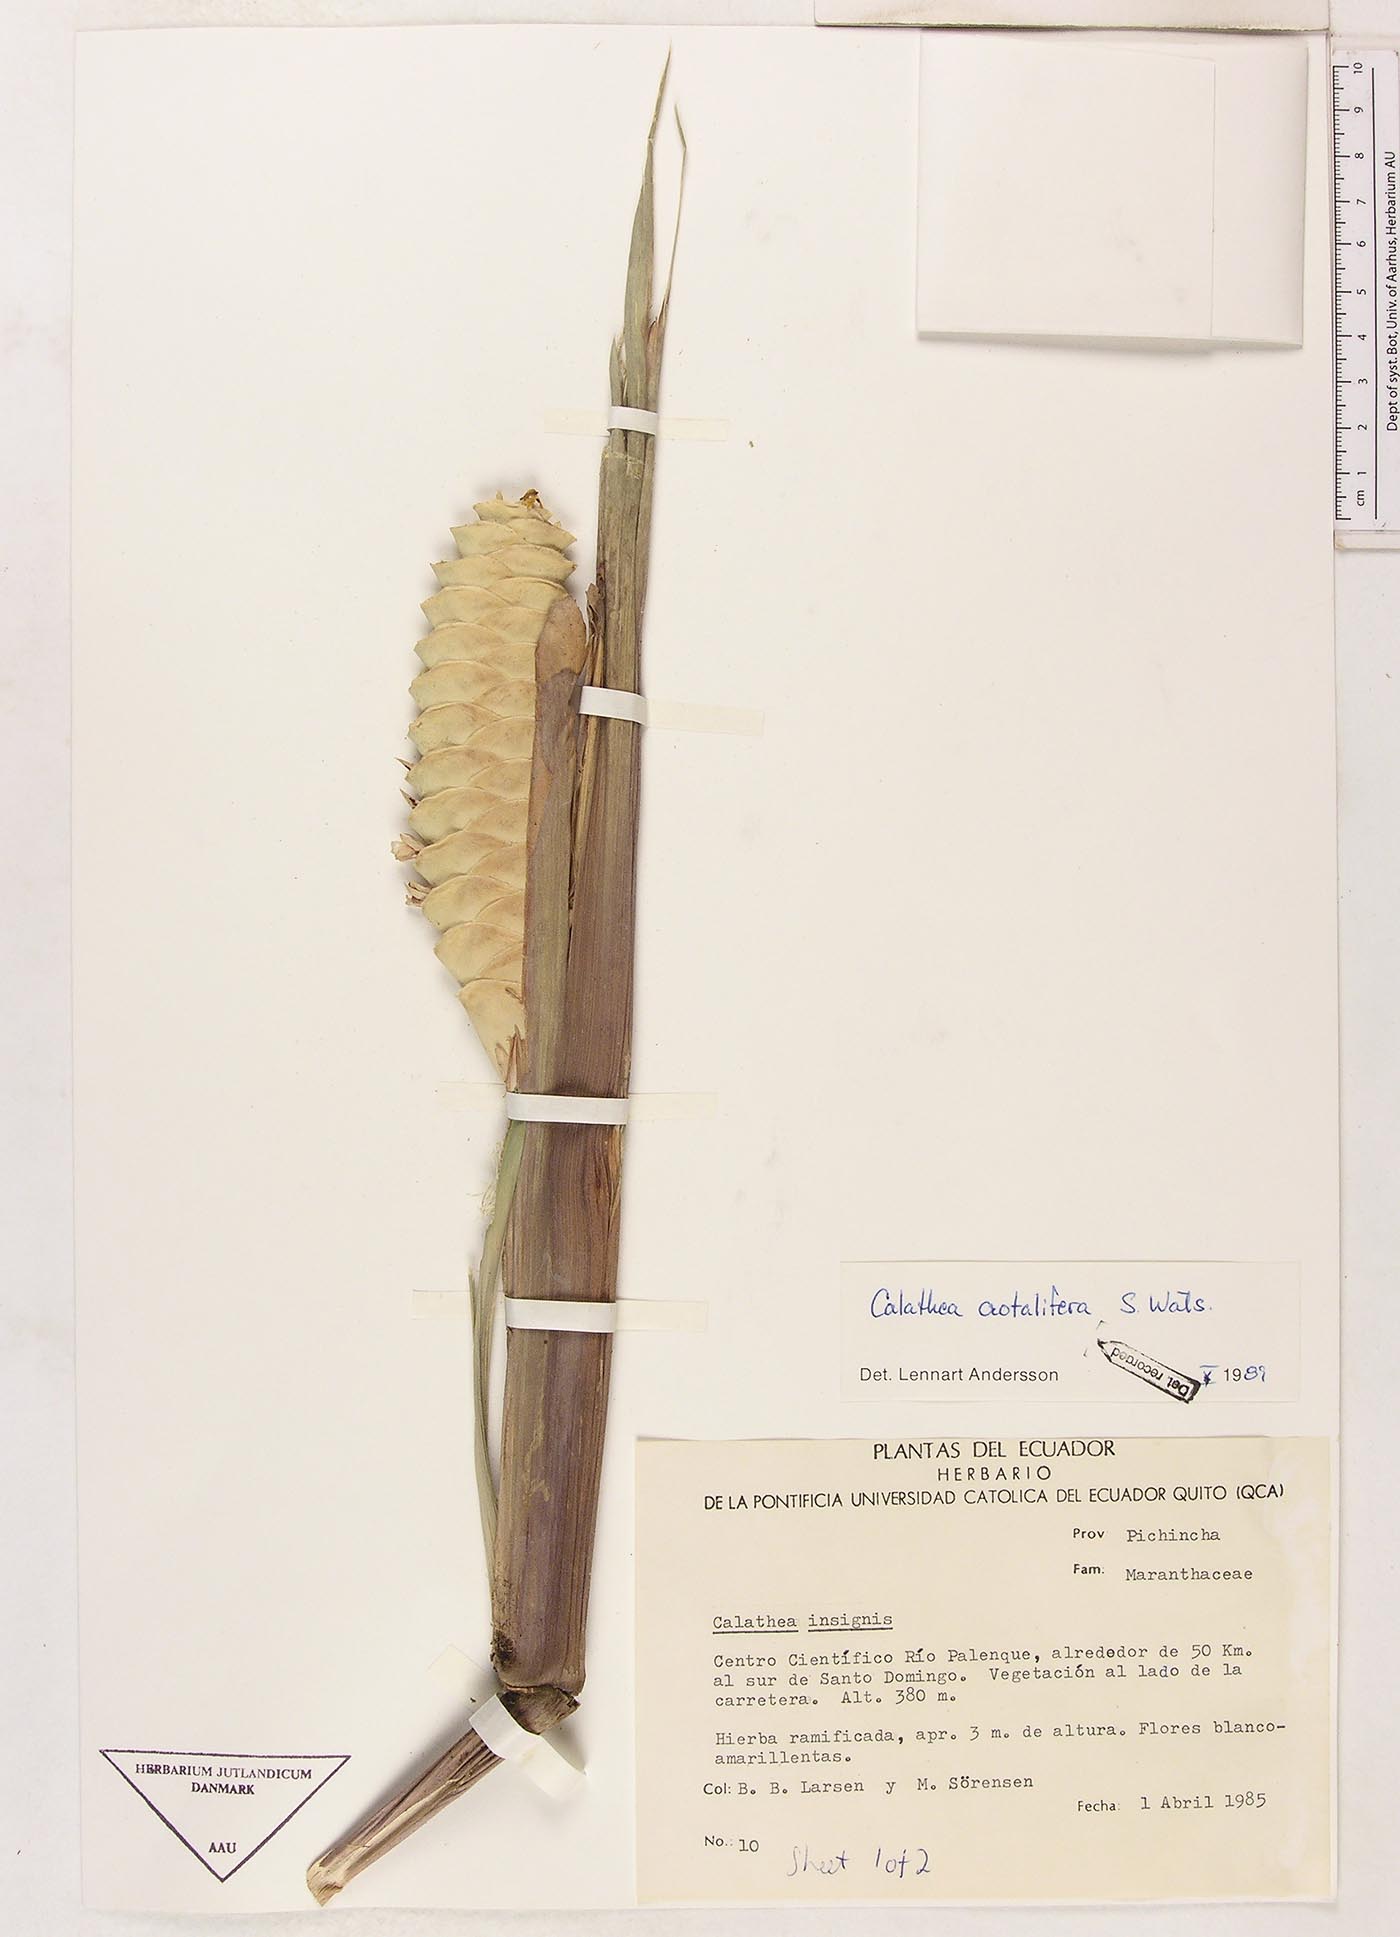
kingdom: Plantae
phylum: Tracheophyta
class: Liliopsida
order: Zingiberales
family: Marantaceae
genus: Calathea
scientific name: Calathea crotalifera
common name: Rattlesnake plant
